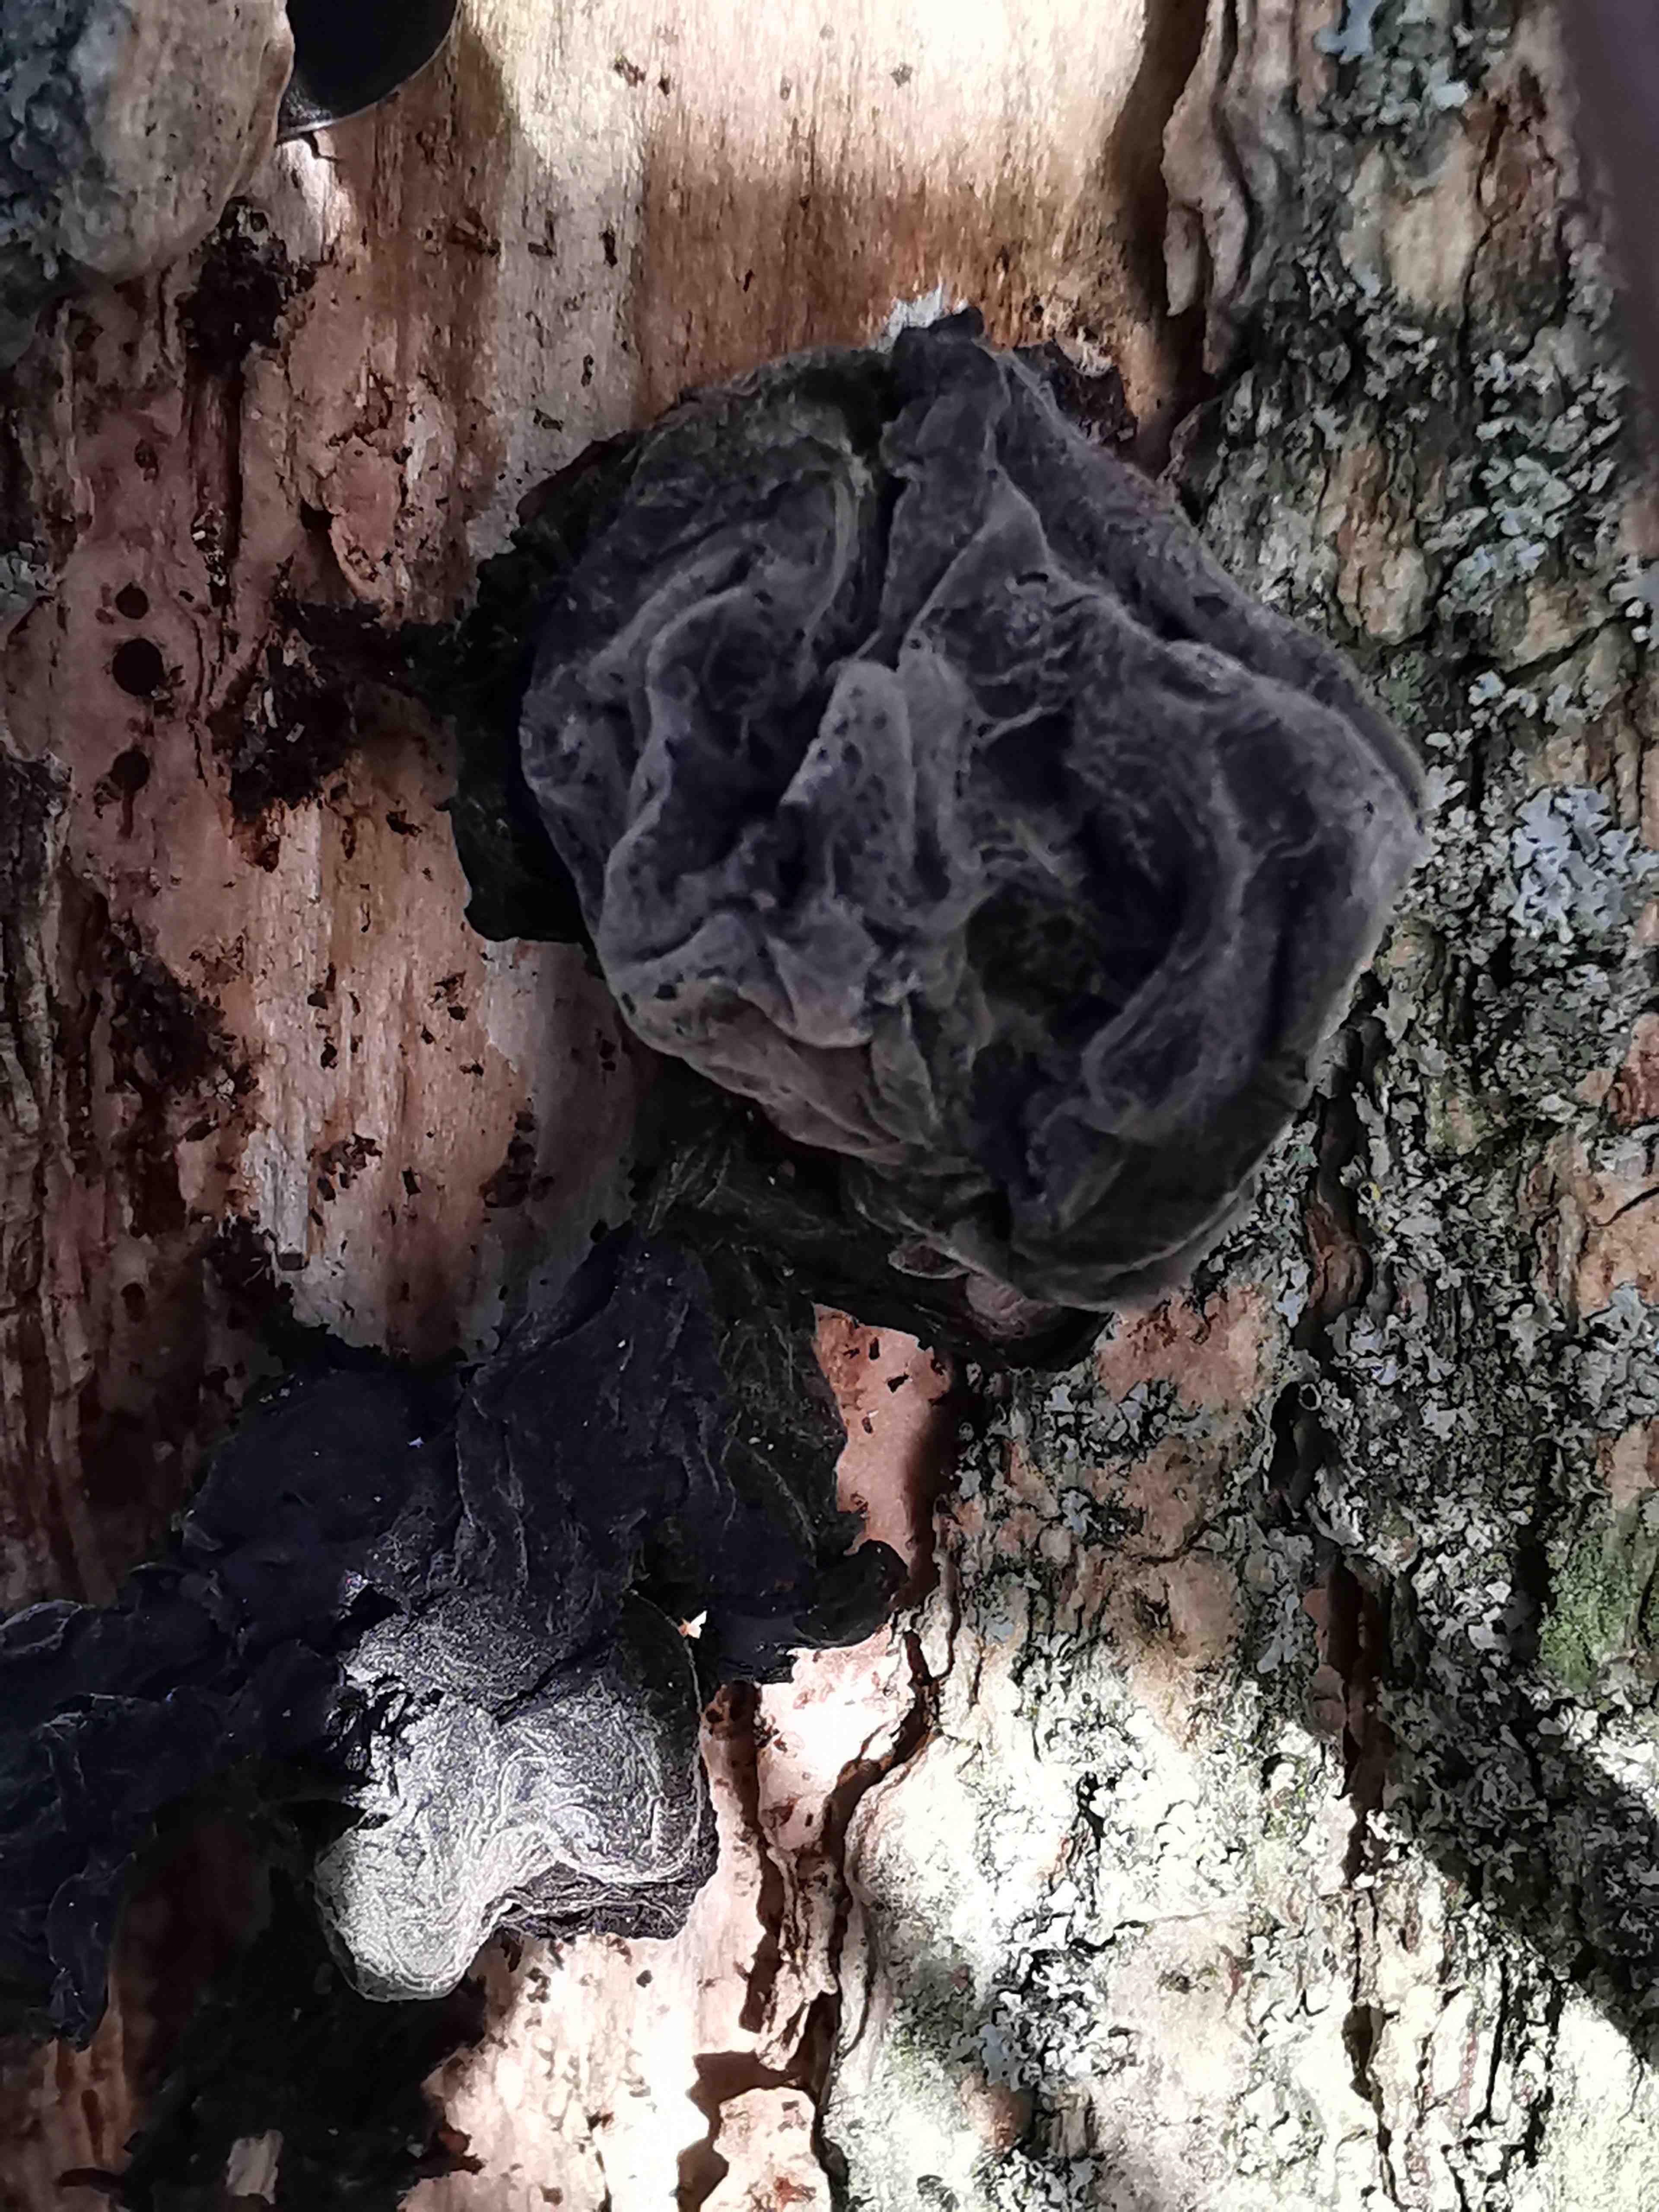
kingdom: Fungi
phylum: Basidiomycota
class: Agaricomycetes
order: Auriculariales
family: Auriculariaceae
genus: Auricularia
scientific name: Auricularia auricula-judae
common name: almindelig judasøre
